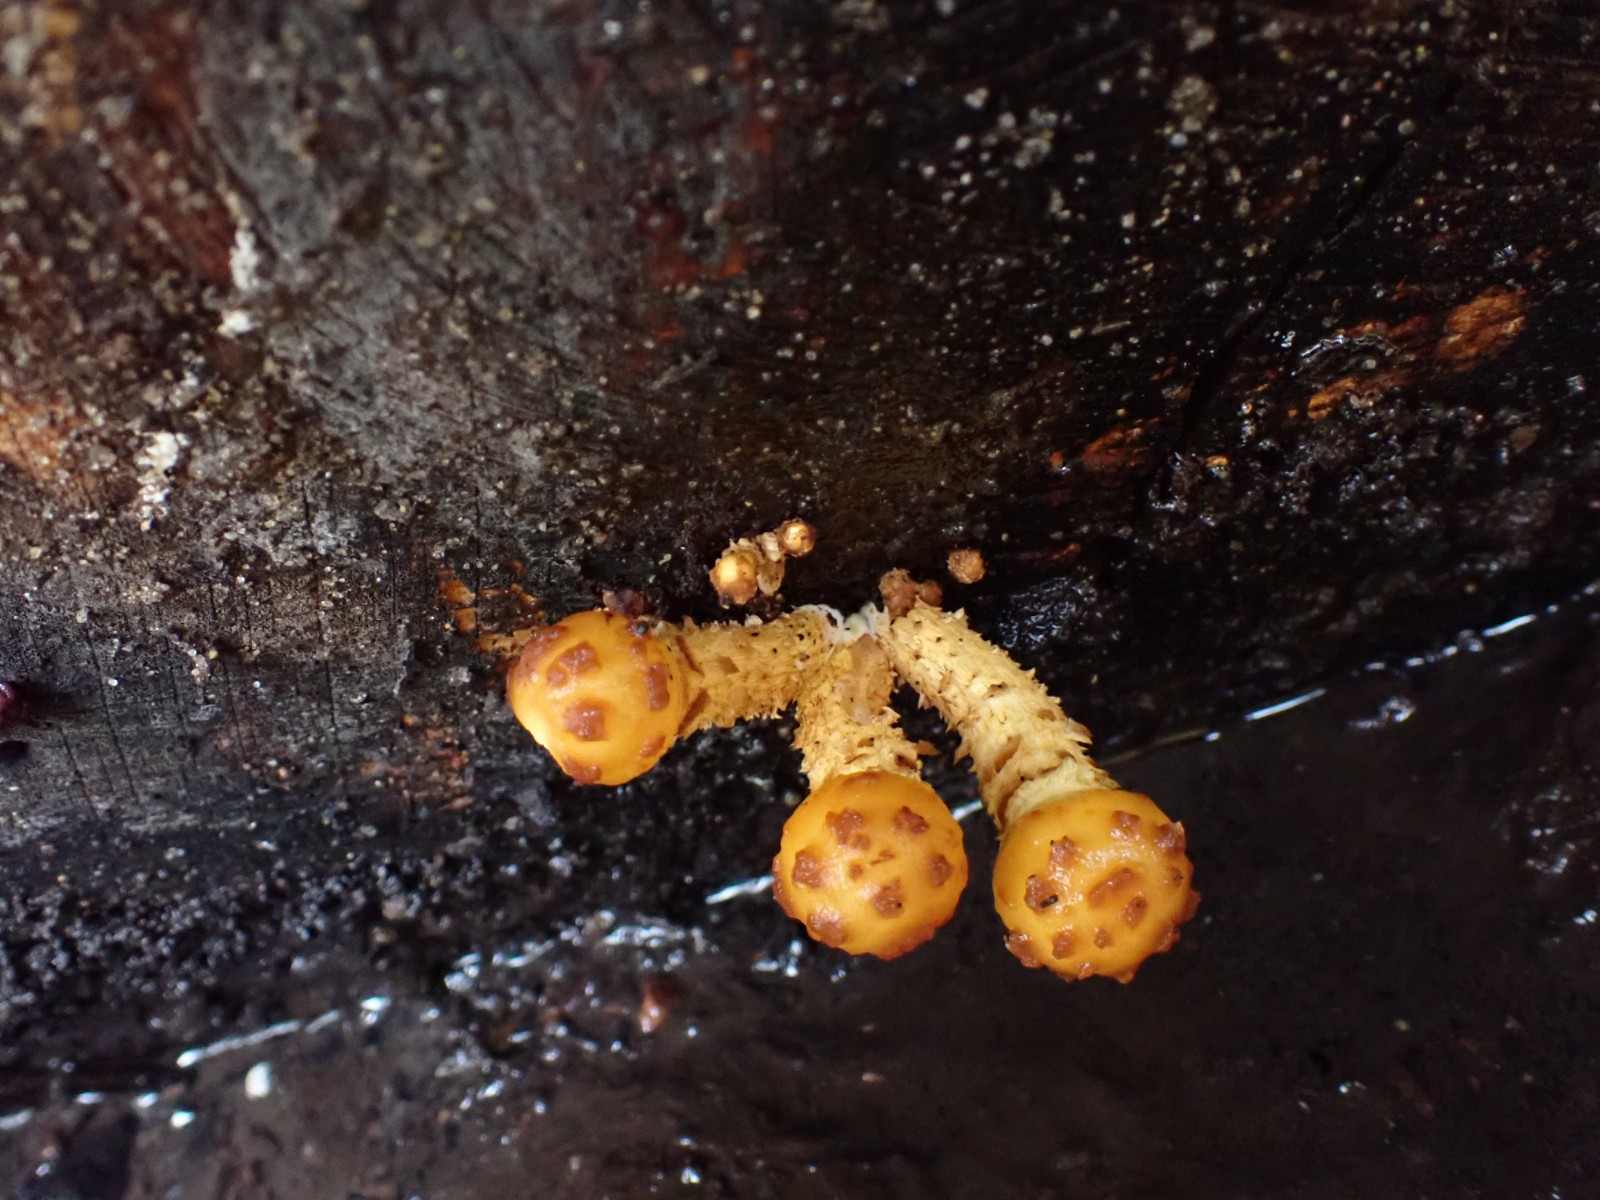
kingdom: Fungi
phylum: Basidiomycota
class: Agaricomycetes
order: Agaricales
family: Strophariaceae
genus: Pholiota
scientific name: Pholiota adiposa
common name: højtsiddende skælhat
